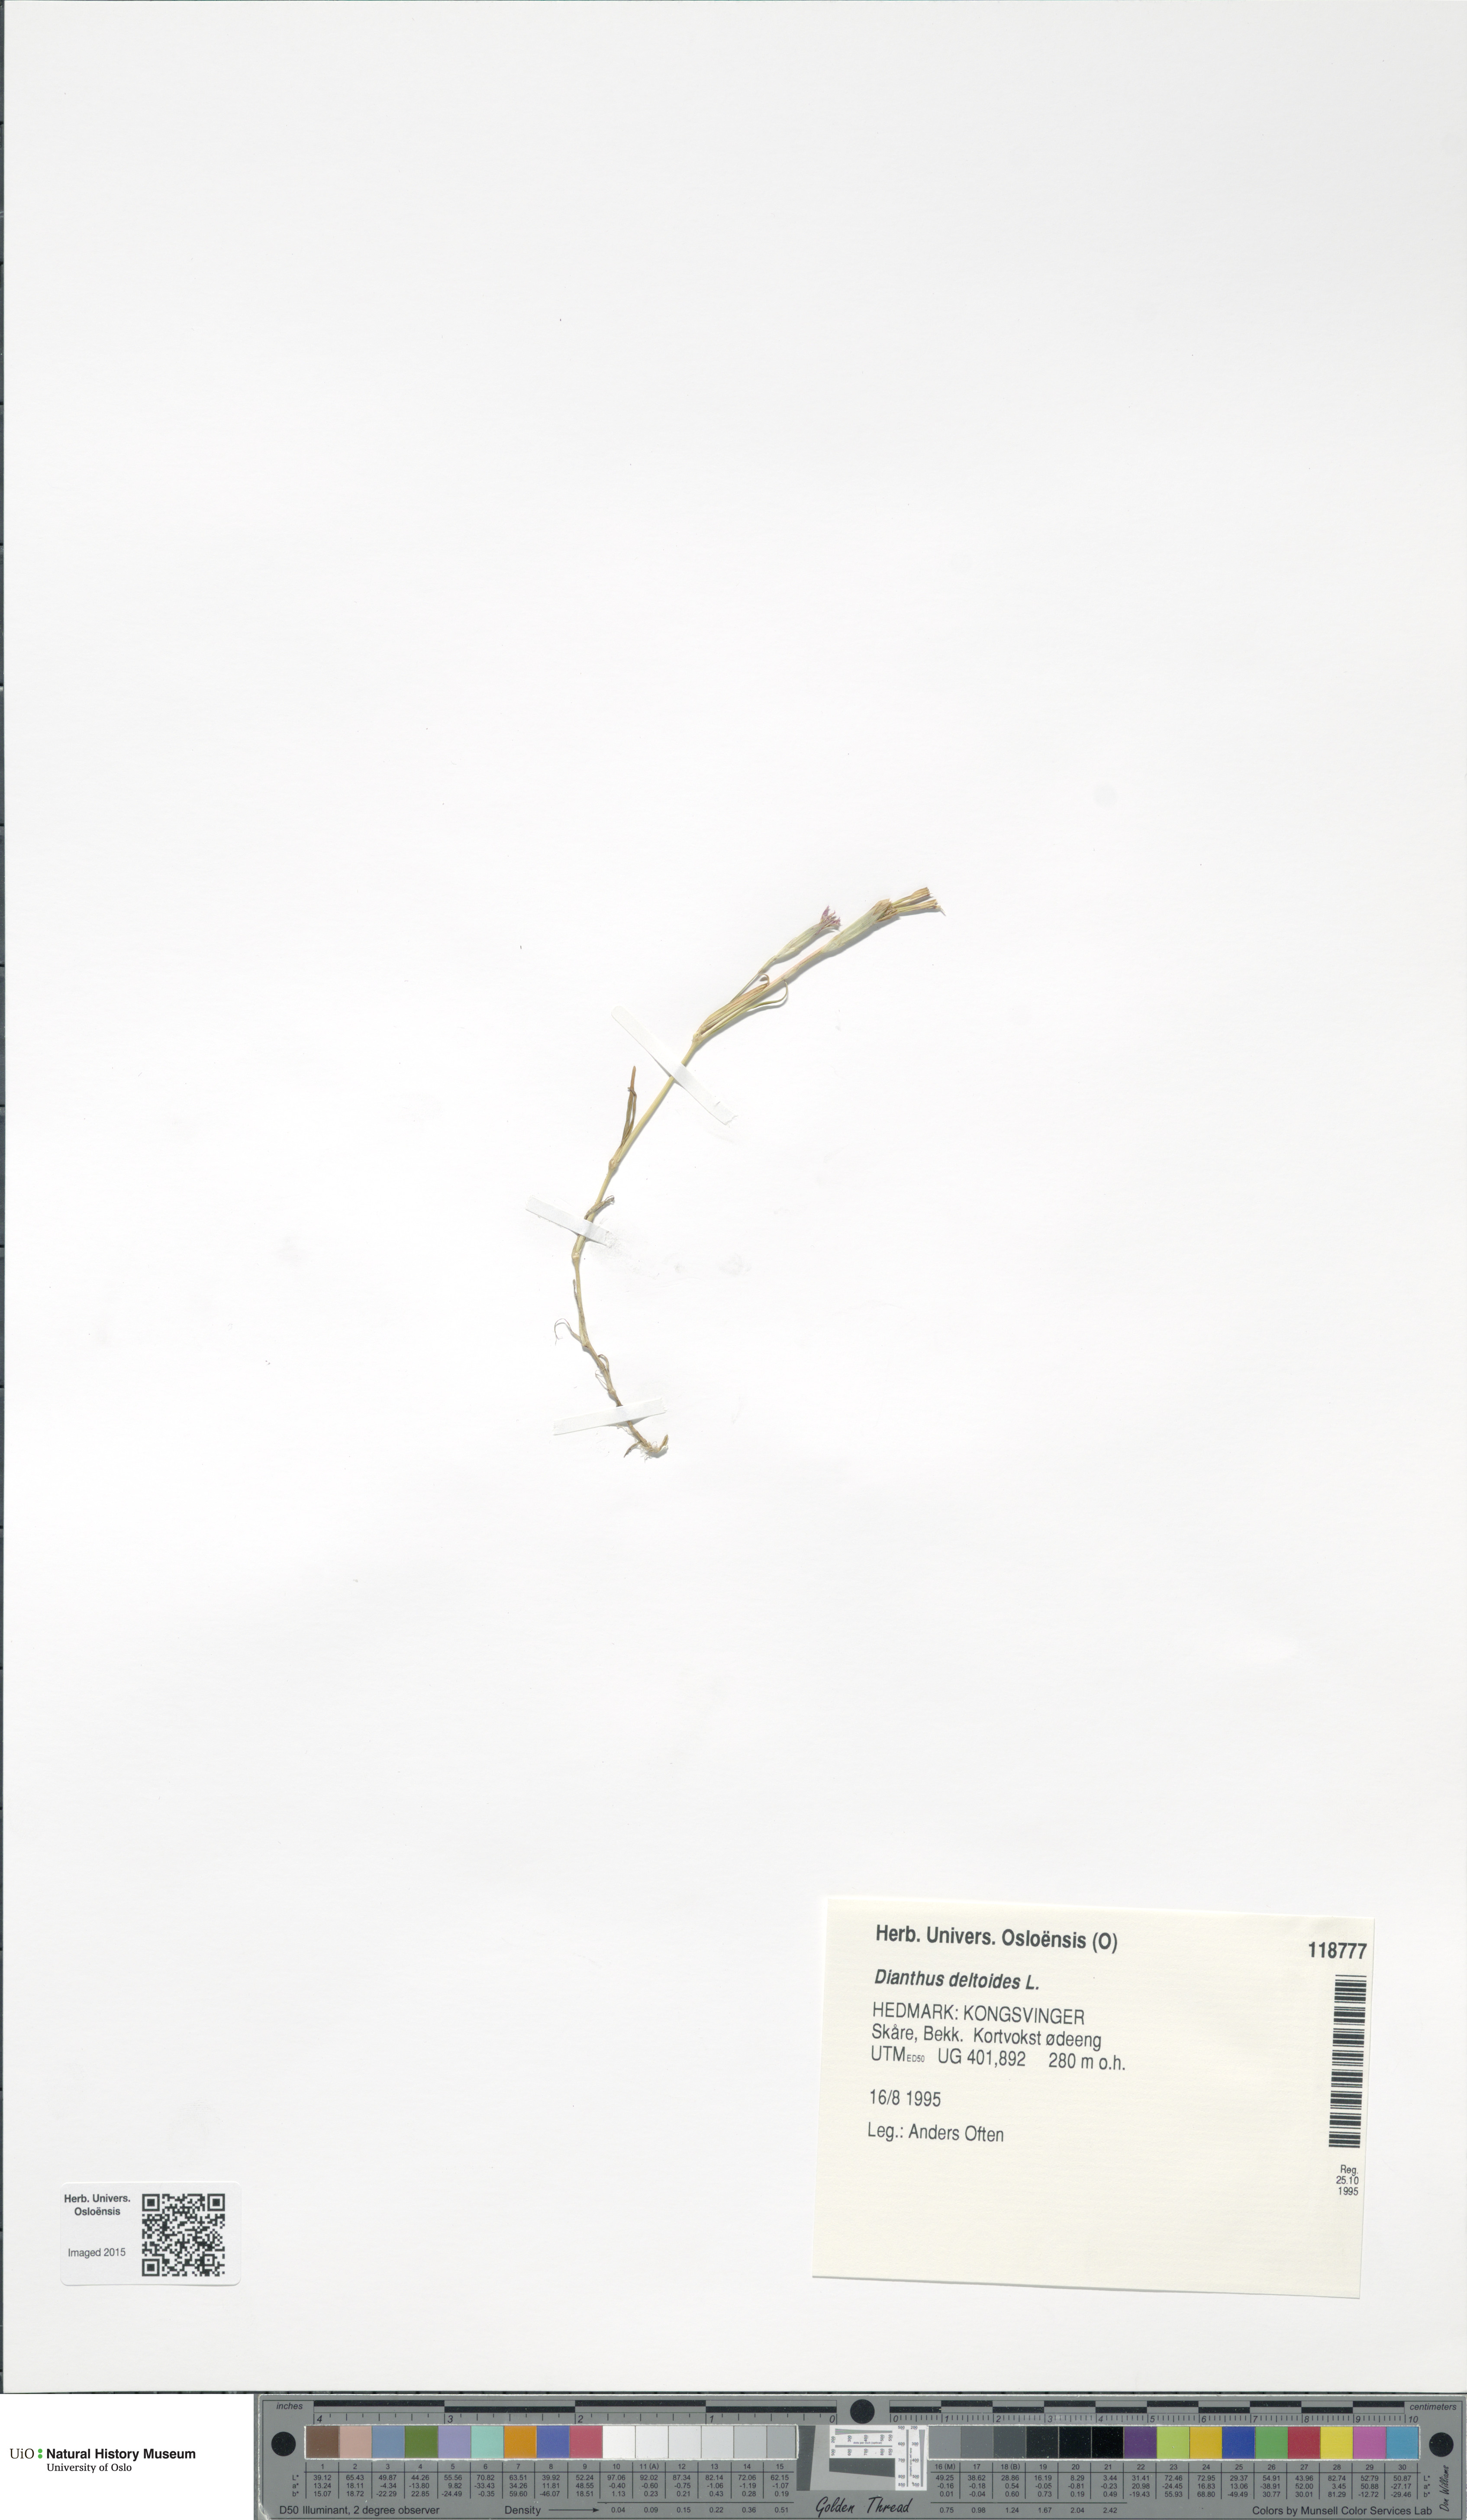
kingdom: Plantae
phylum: Tracheophyta
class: Magnoliopsida
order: Caryophyllales
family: Caryophyllaceae
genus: Dianthus
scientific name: Dianthus deltoides
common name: Maiden pink
